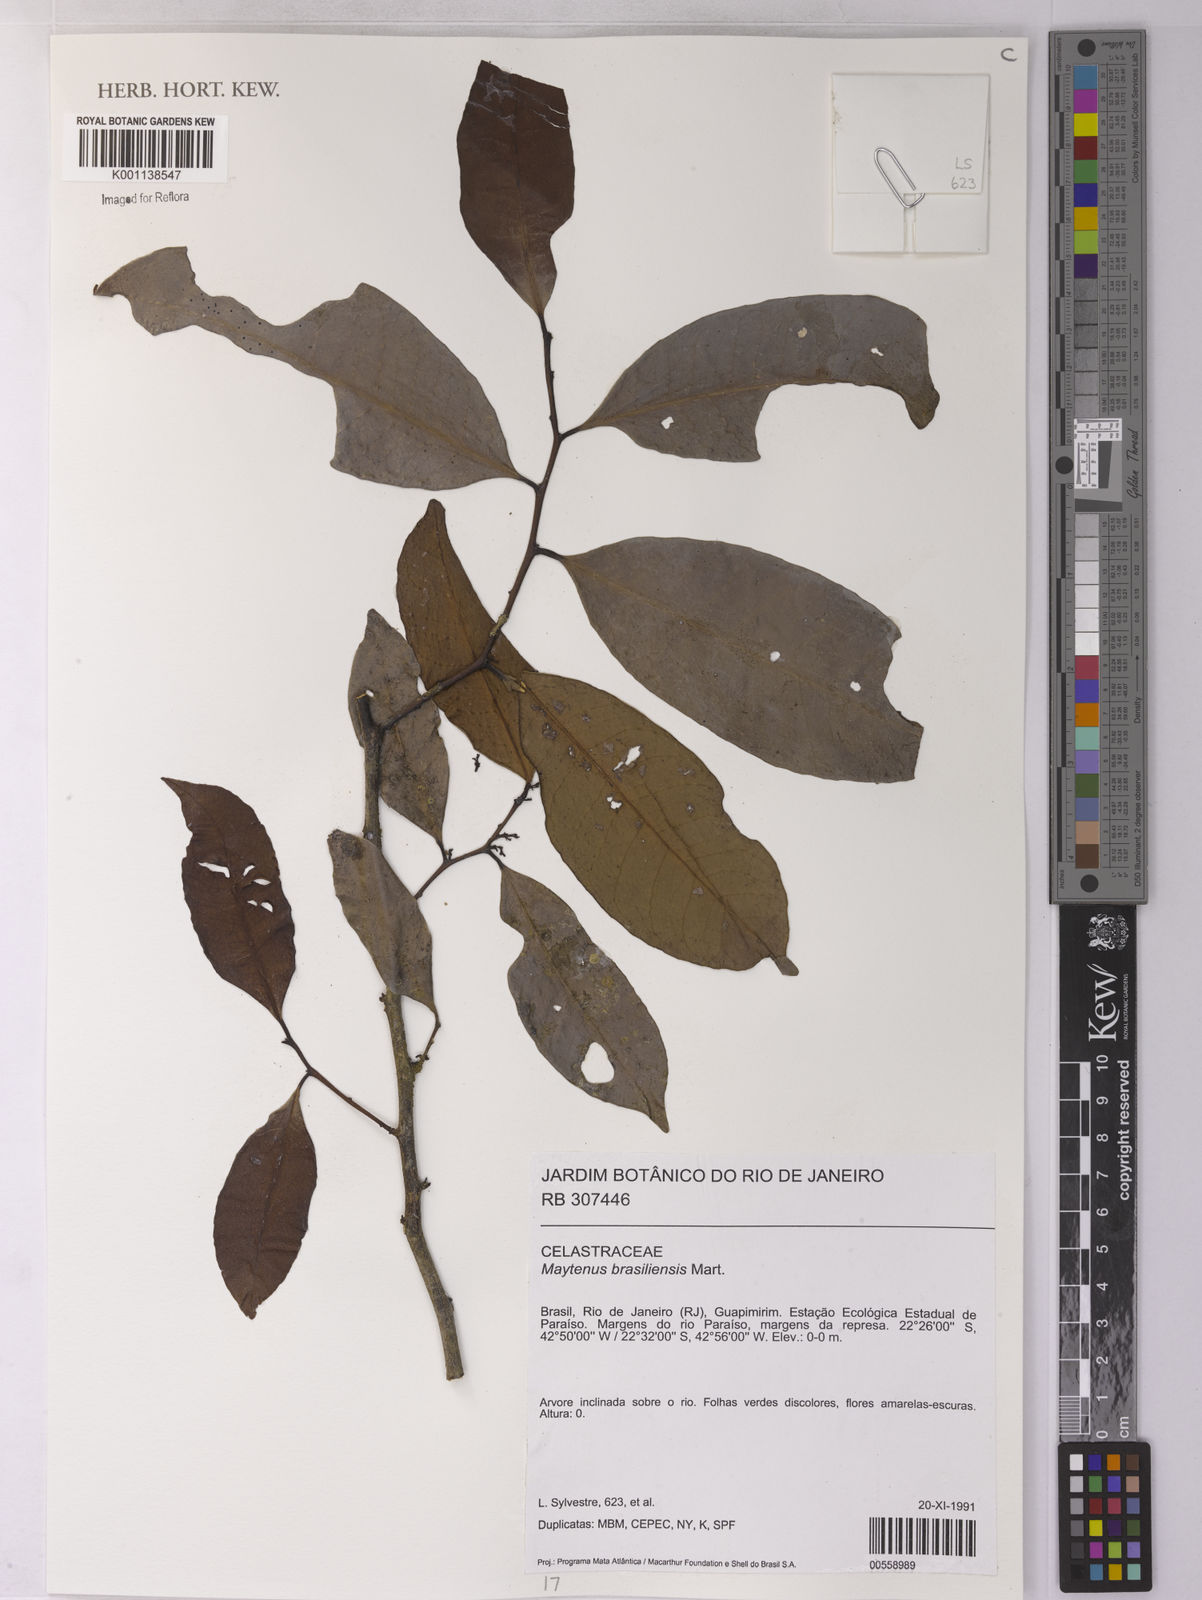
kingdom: Plantae
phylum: Tracheophyta
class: Magnoliopsida
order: Celastrales
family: Celastraceae
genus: Monteverdia
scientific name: Monteverdia brasiliensis
